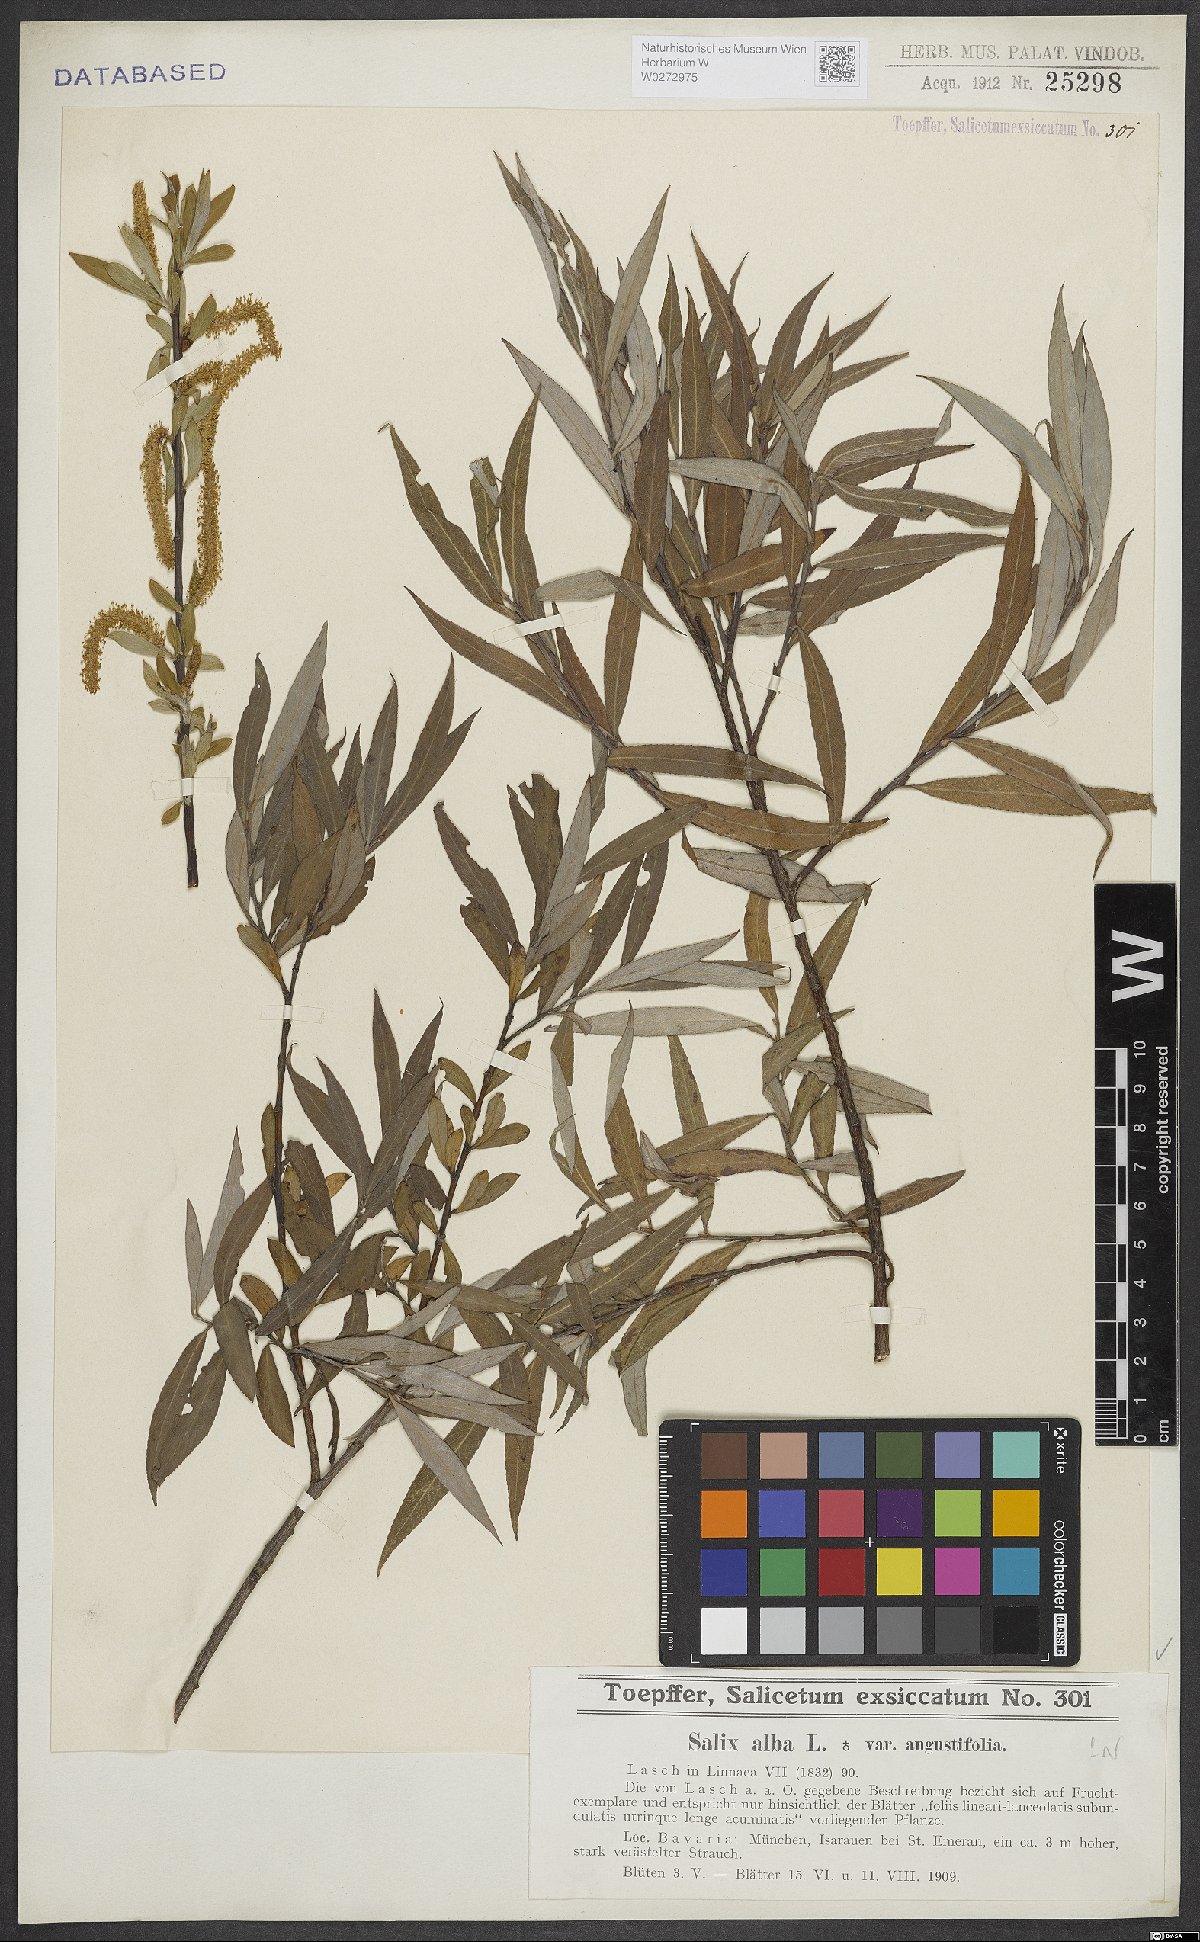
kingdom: Plantae
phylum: Tracheophyta
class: Magnoliopsida
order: Malpighiales
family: Salicaceae
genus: Salix
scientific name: Salix alba
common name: White willow
